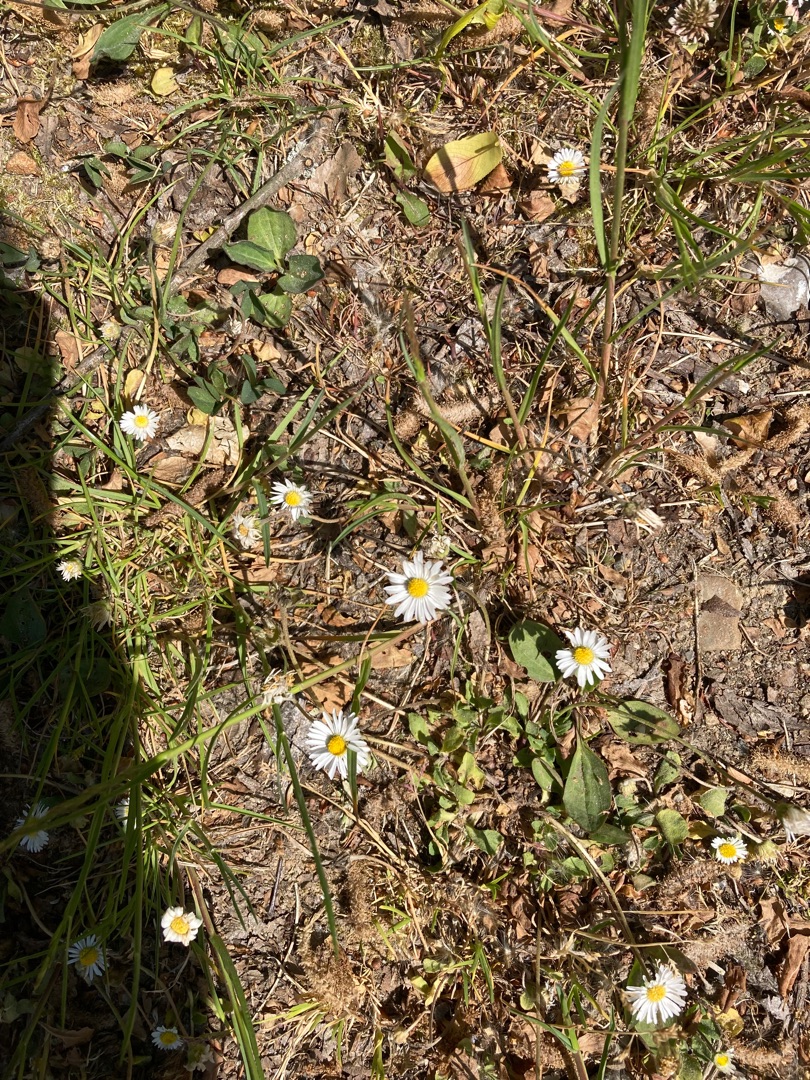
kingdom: Plantae
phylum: Tracheophyta
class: Magnoliopsida
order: Asterales
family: Asteraceae
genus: Bellis
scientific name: Bellis perennis
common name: Tusindfryd
